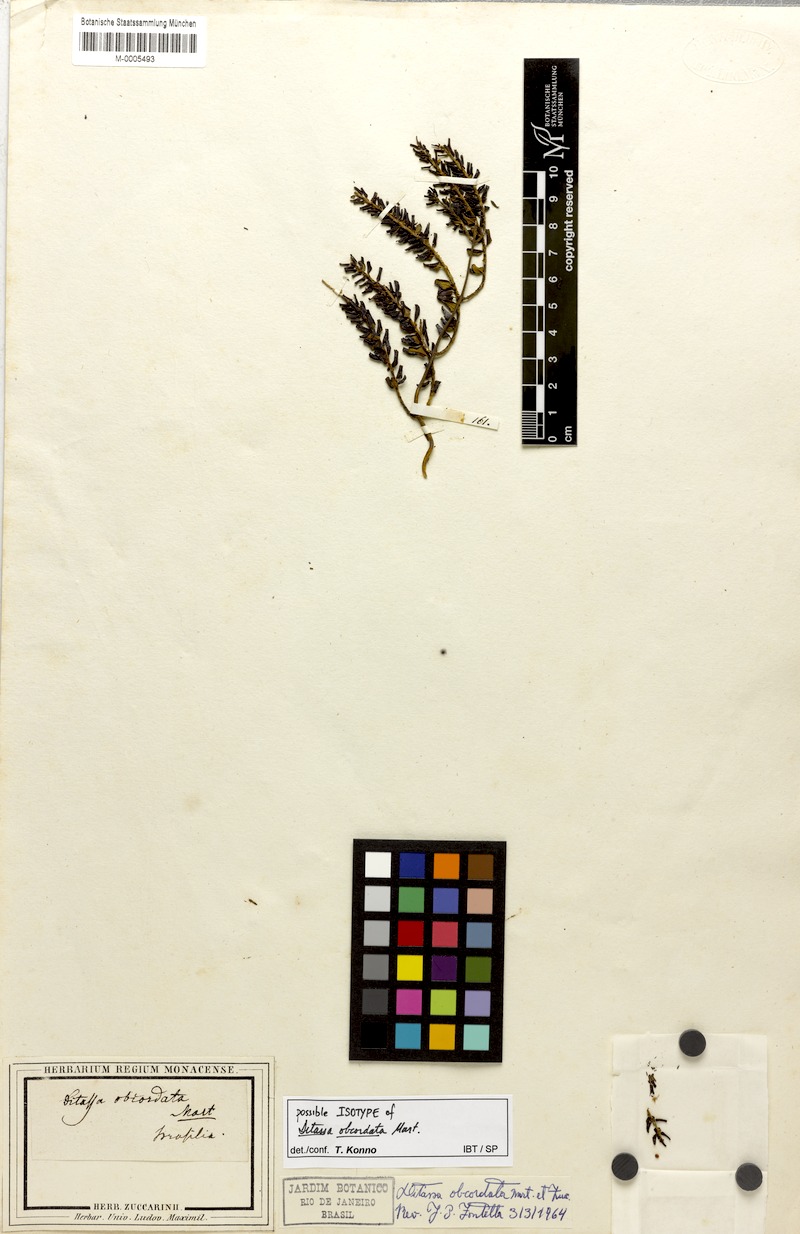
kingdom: Plantae
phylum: Tracheophyta
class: Magnoliopsida
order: Gentianales
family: Apocynaceae
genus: Ditassa
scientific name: Ditassa obcordata
